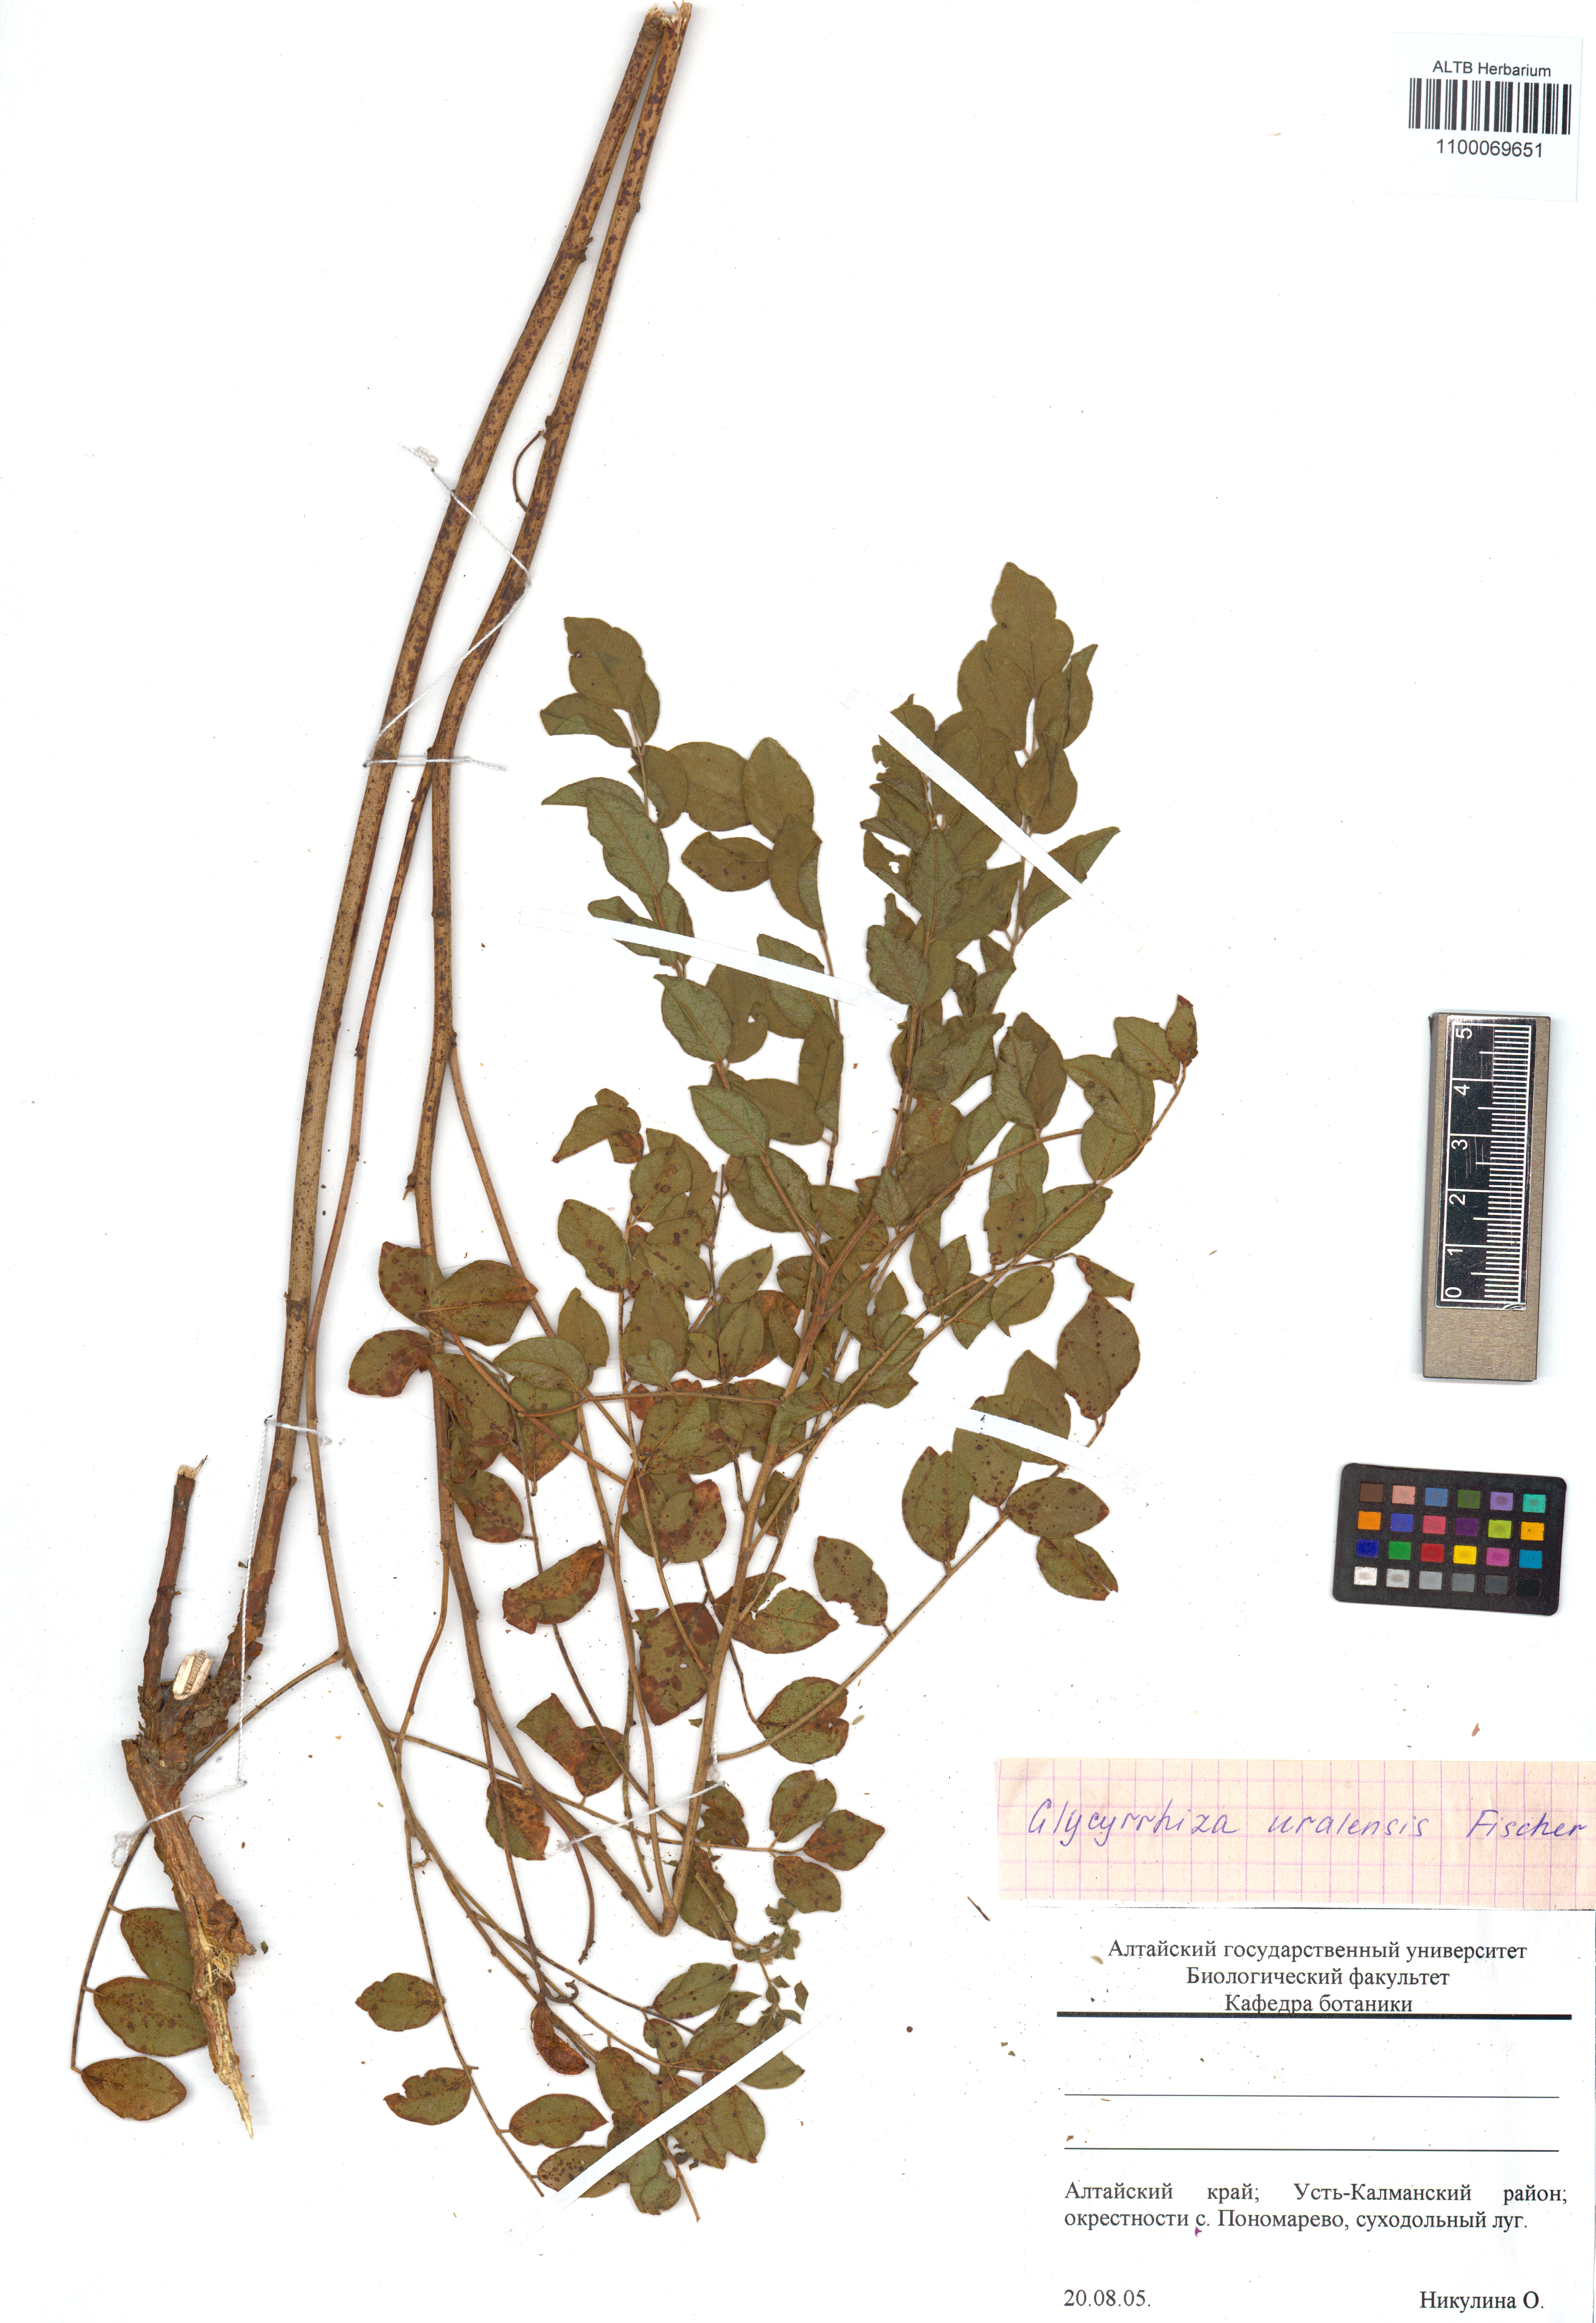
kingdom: Plantae
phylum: Tracheophyta
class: Magnoliopsida
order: Fabales
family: Fabaceae
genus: Glycyrrhiza
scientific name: Glycyrrhiza uralensis
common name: Chinese licorice
